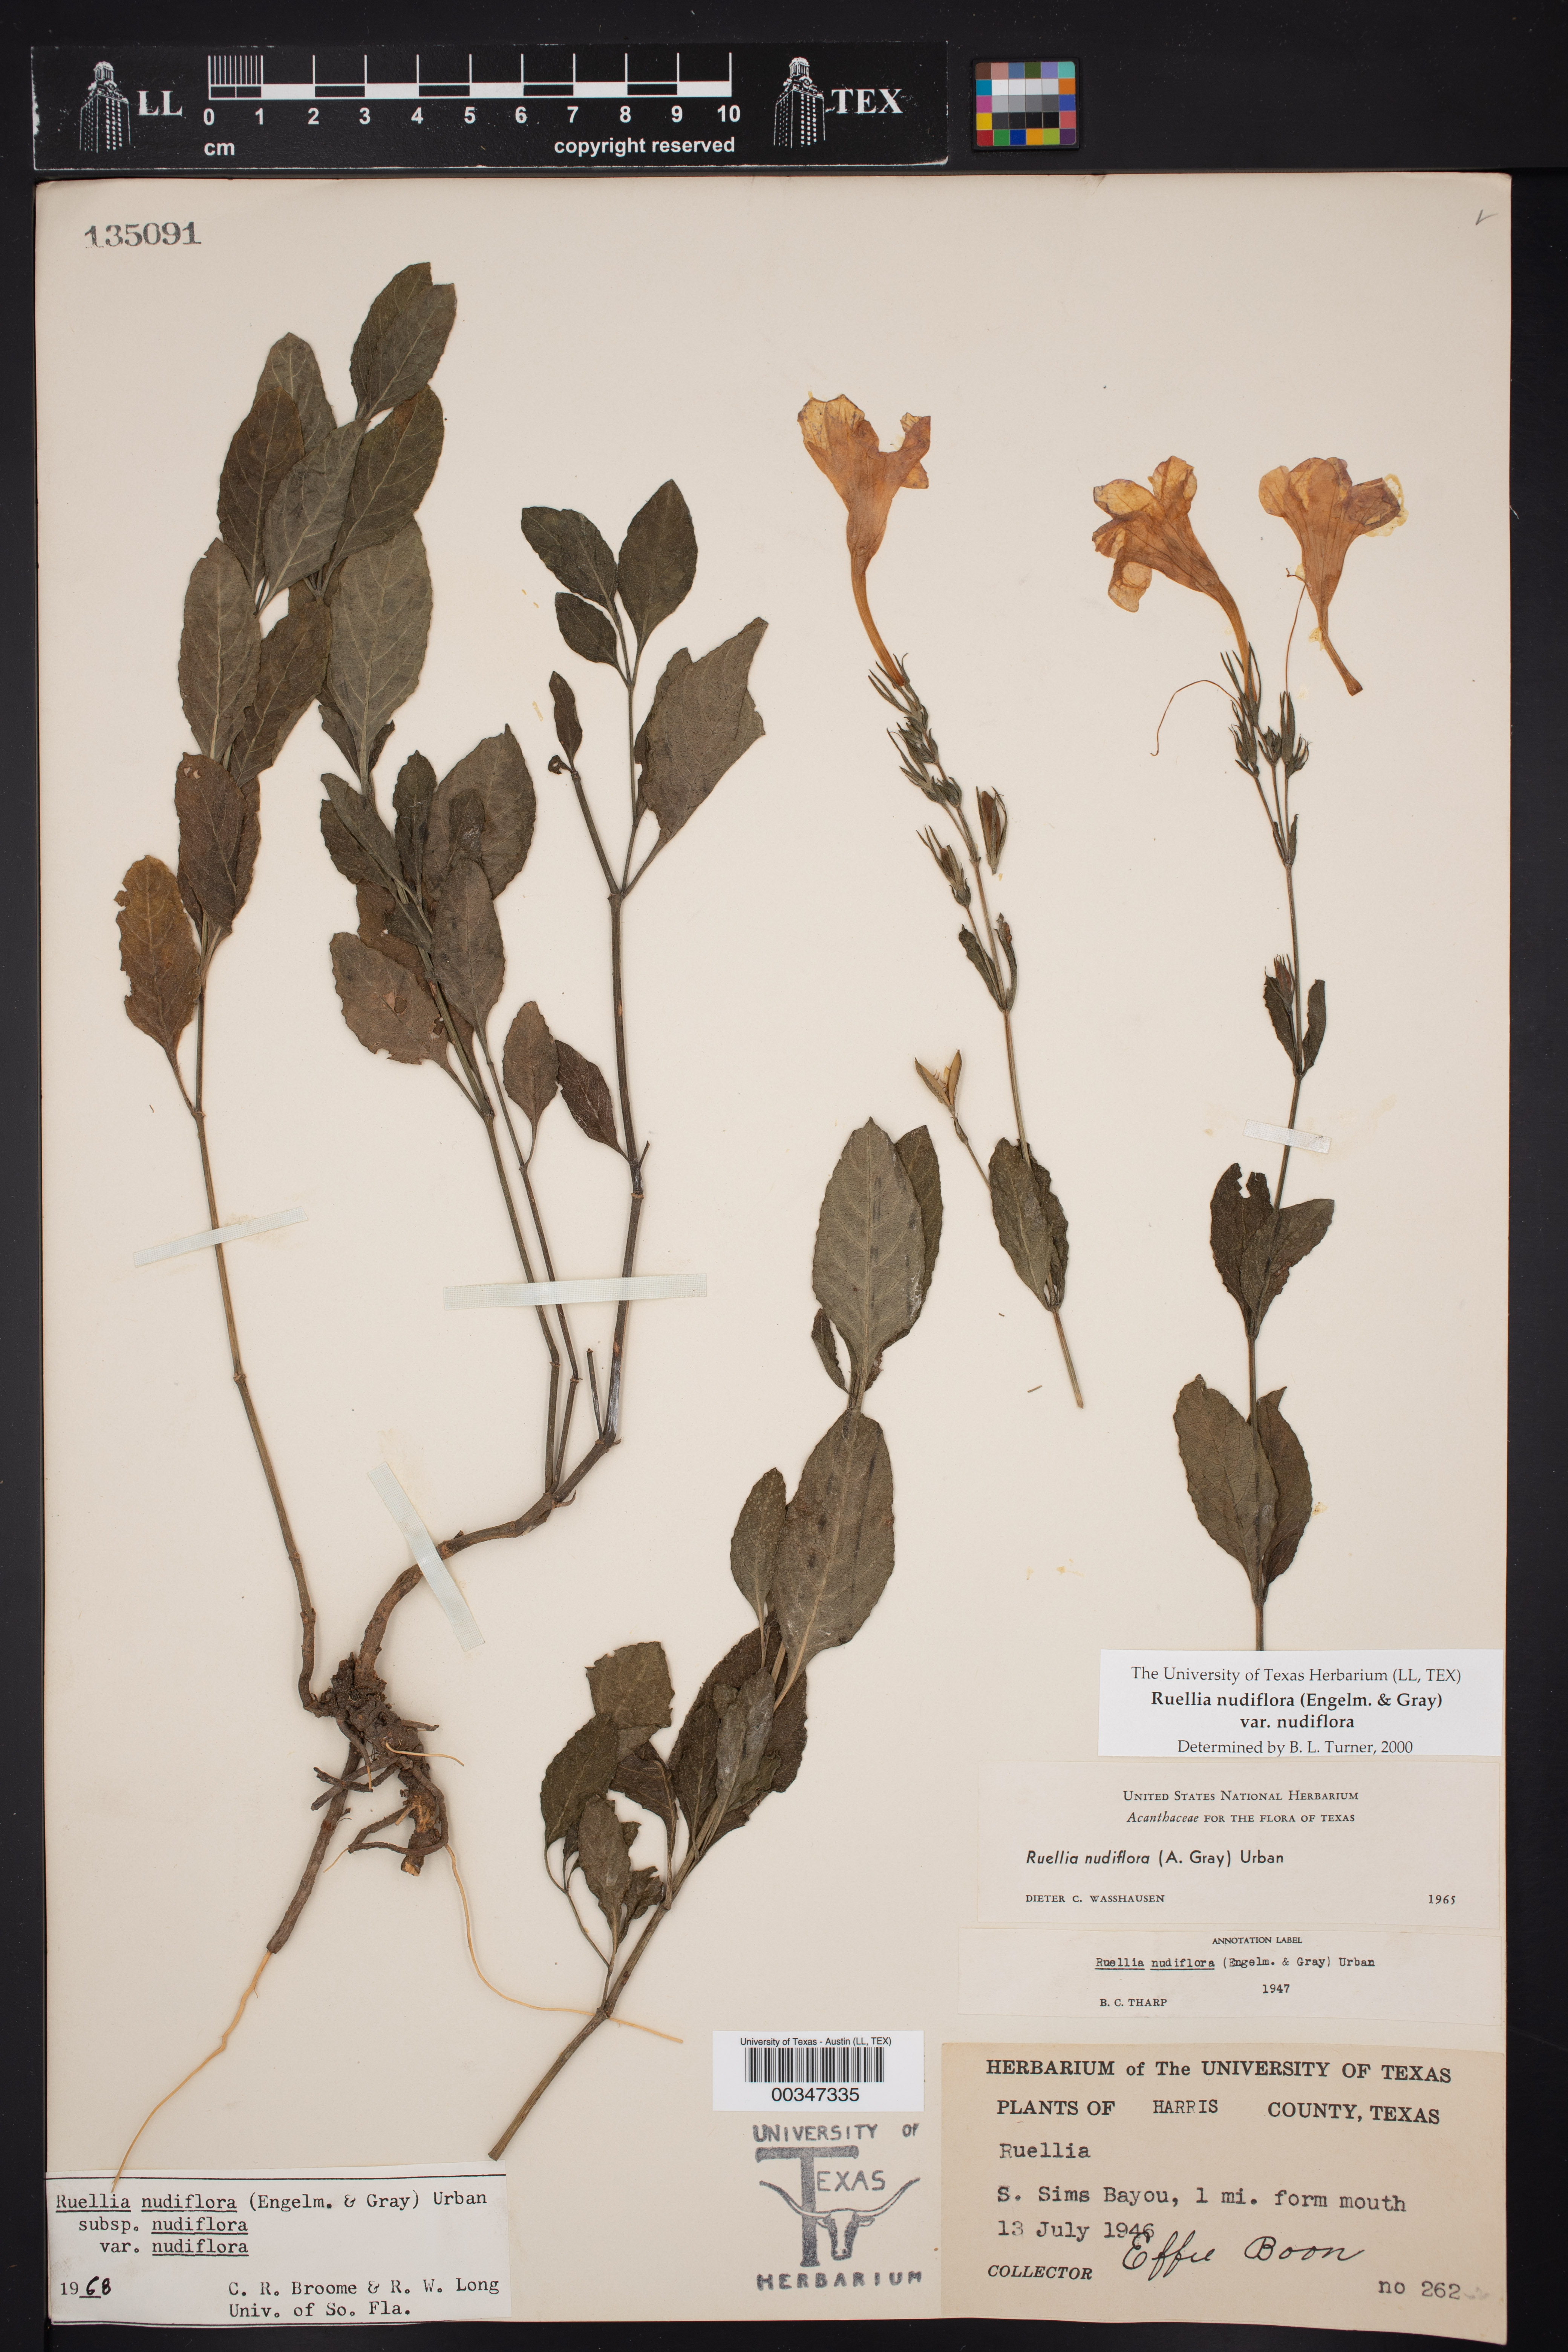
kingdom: Plantae
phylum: Tracheophyta
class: Magnoliopsida
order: Lamiales
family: Acanthaceae
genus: Ruellia
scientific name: Ruellia ciliatiflora
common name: Hairyflower wild petunia
